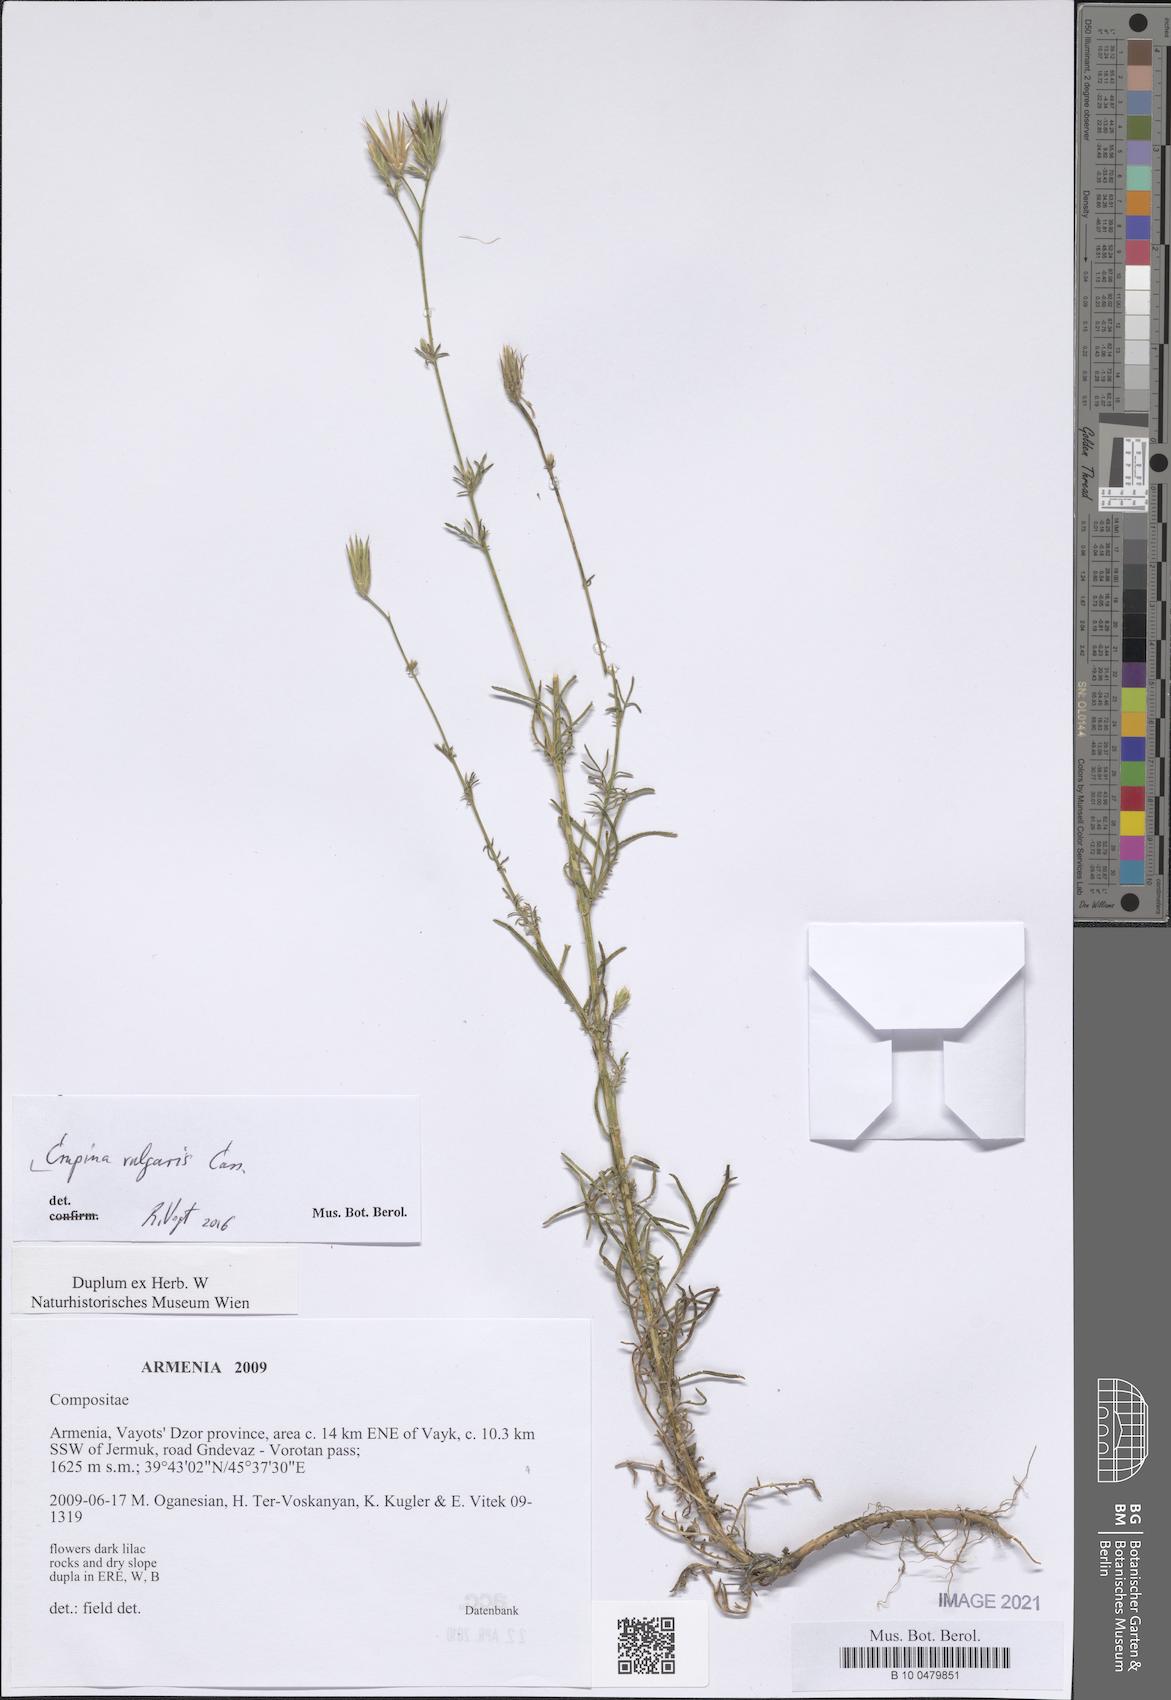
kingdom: Plantae
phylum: Tracheophyta
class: Magnoliopsida
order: Asterales
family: Asteraceae
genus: Crupina
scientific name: Crupina vulgaris
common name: Common crupina
